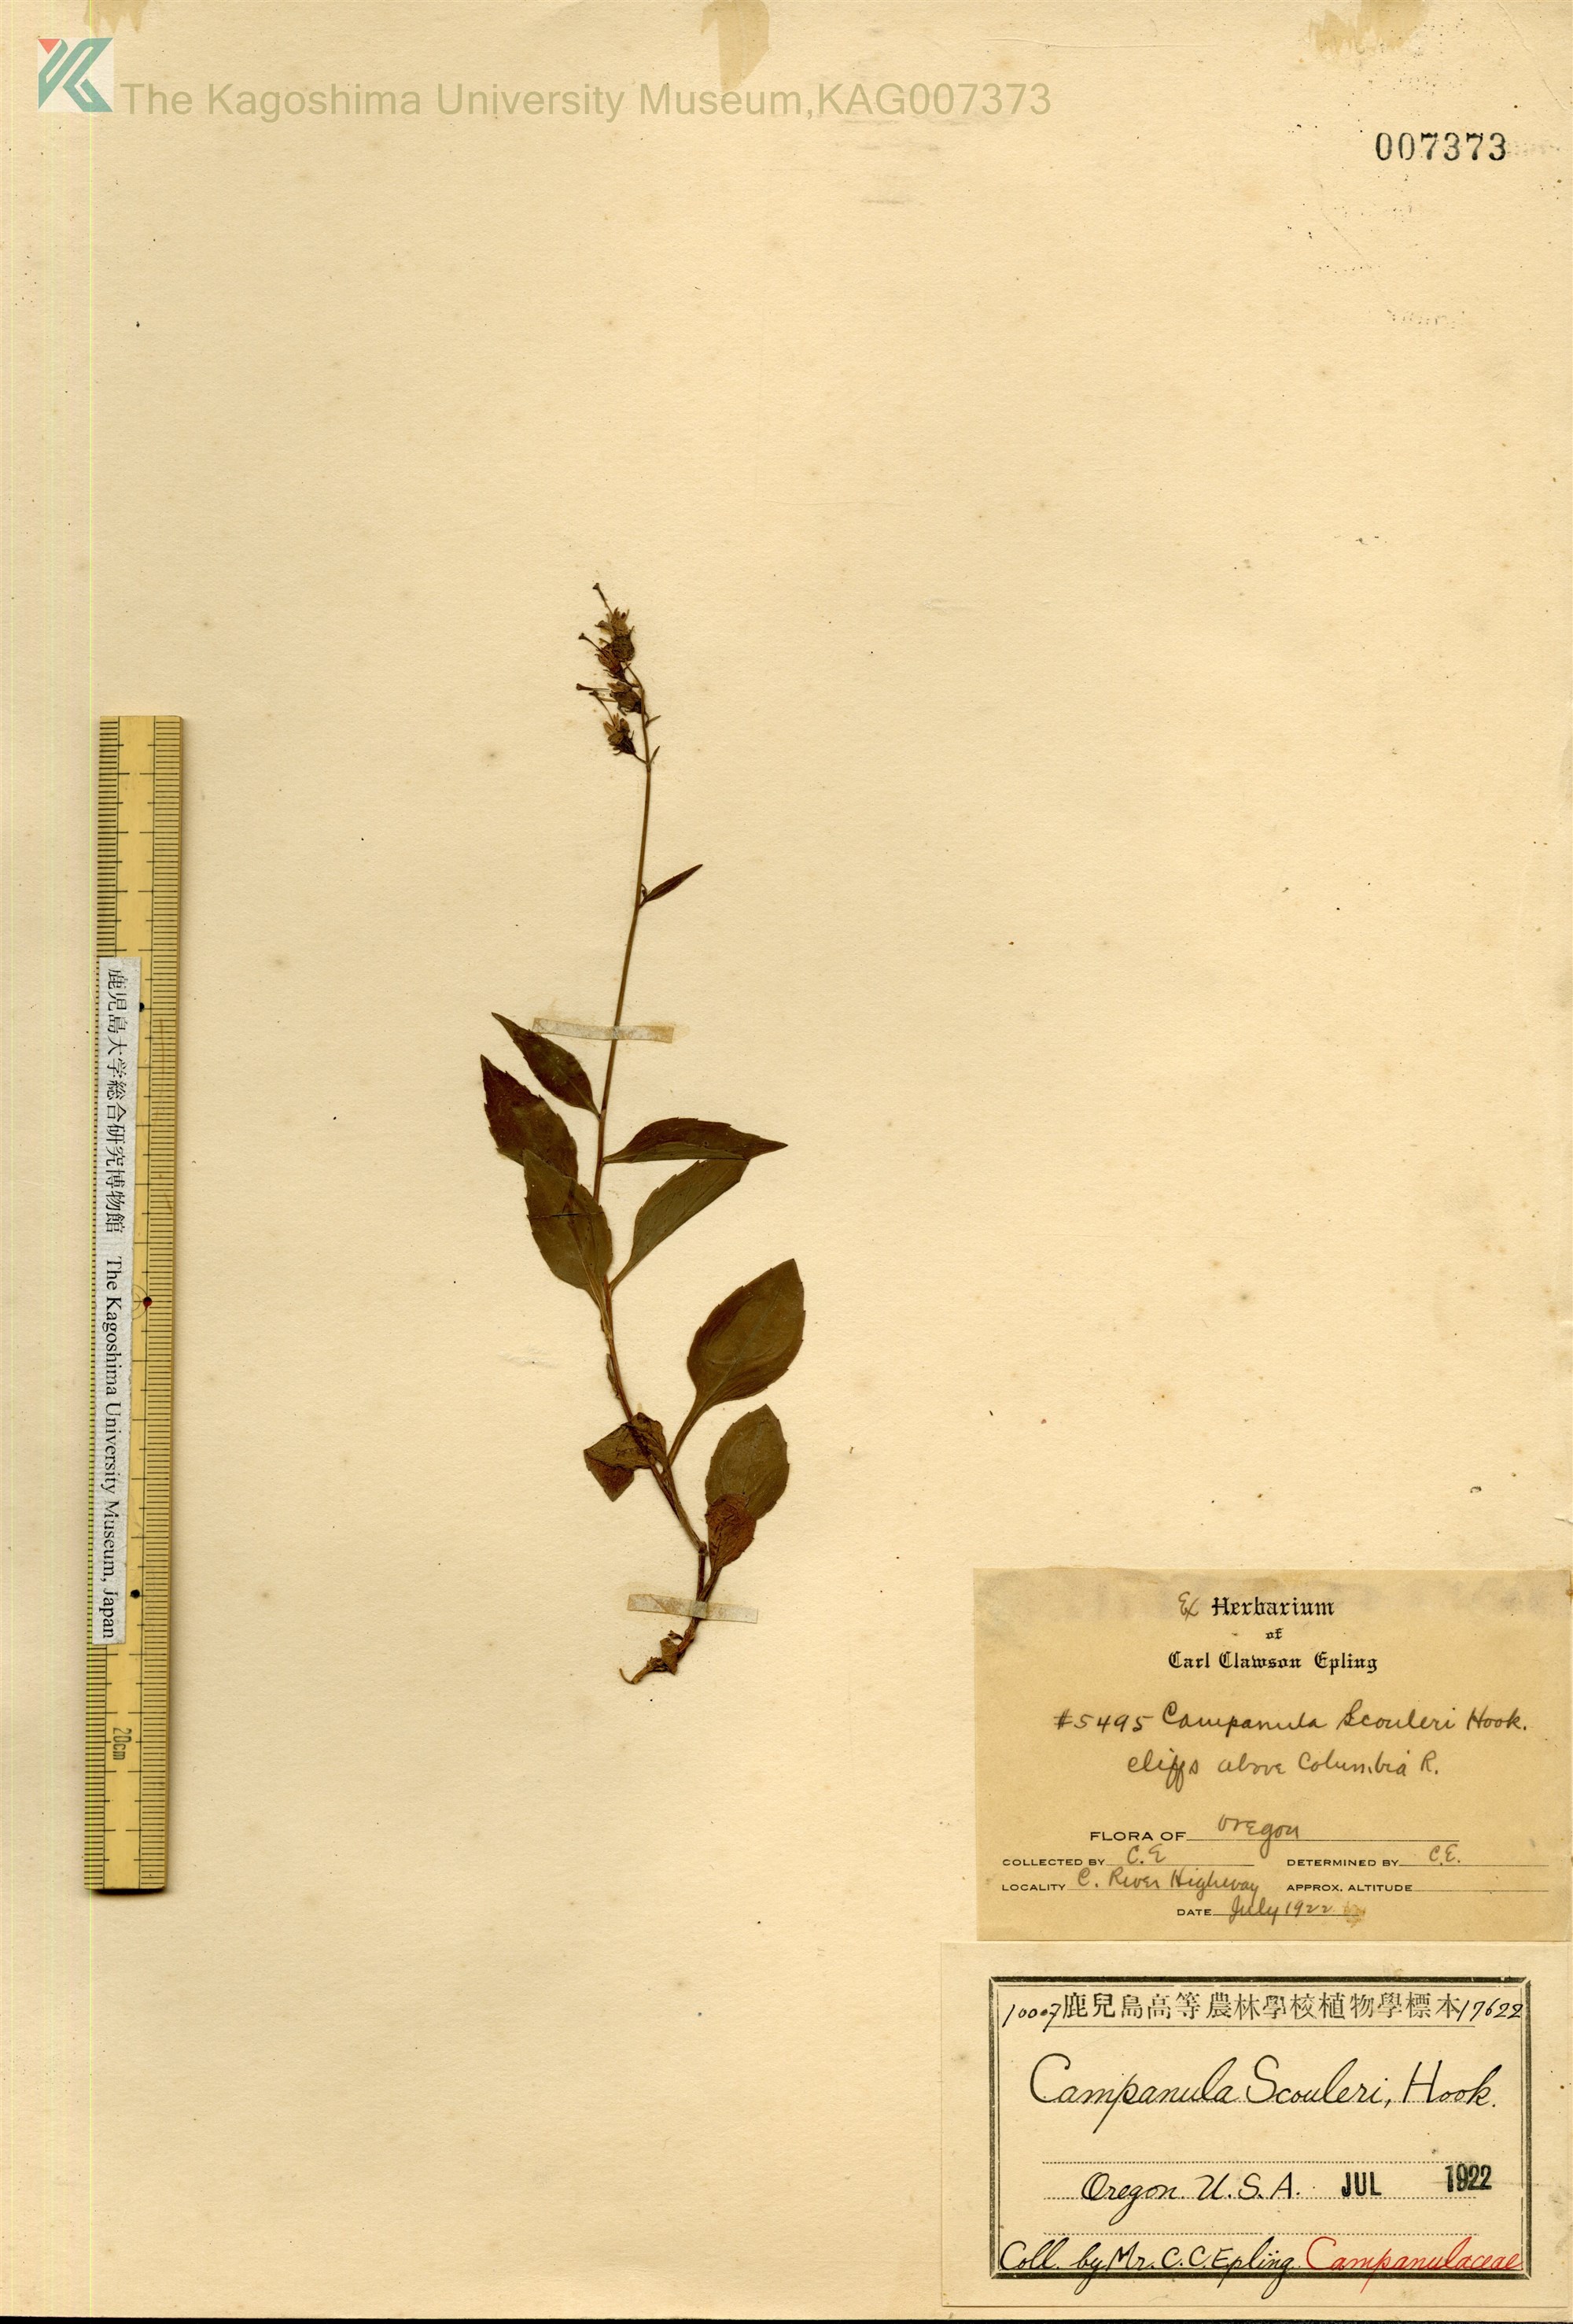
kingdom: Plantae
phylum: Tracheophyta
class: Magnoliopsida
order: Asterales
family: Campanulaceae
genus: Campanula
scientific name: Campanula scouleri
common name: Scouler's harebell
